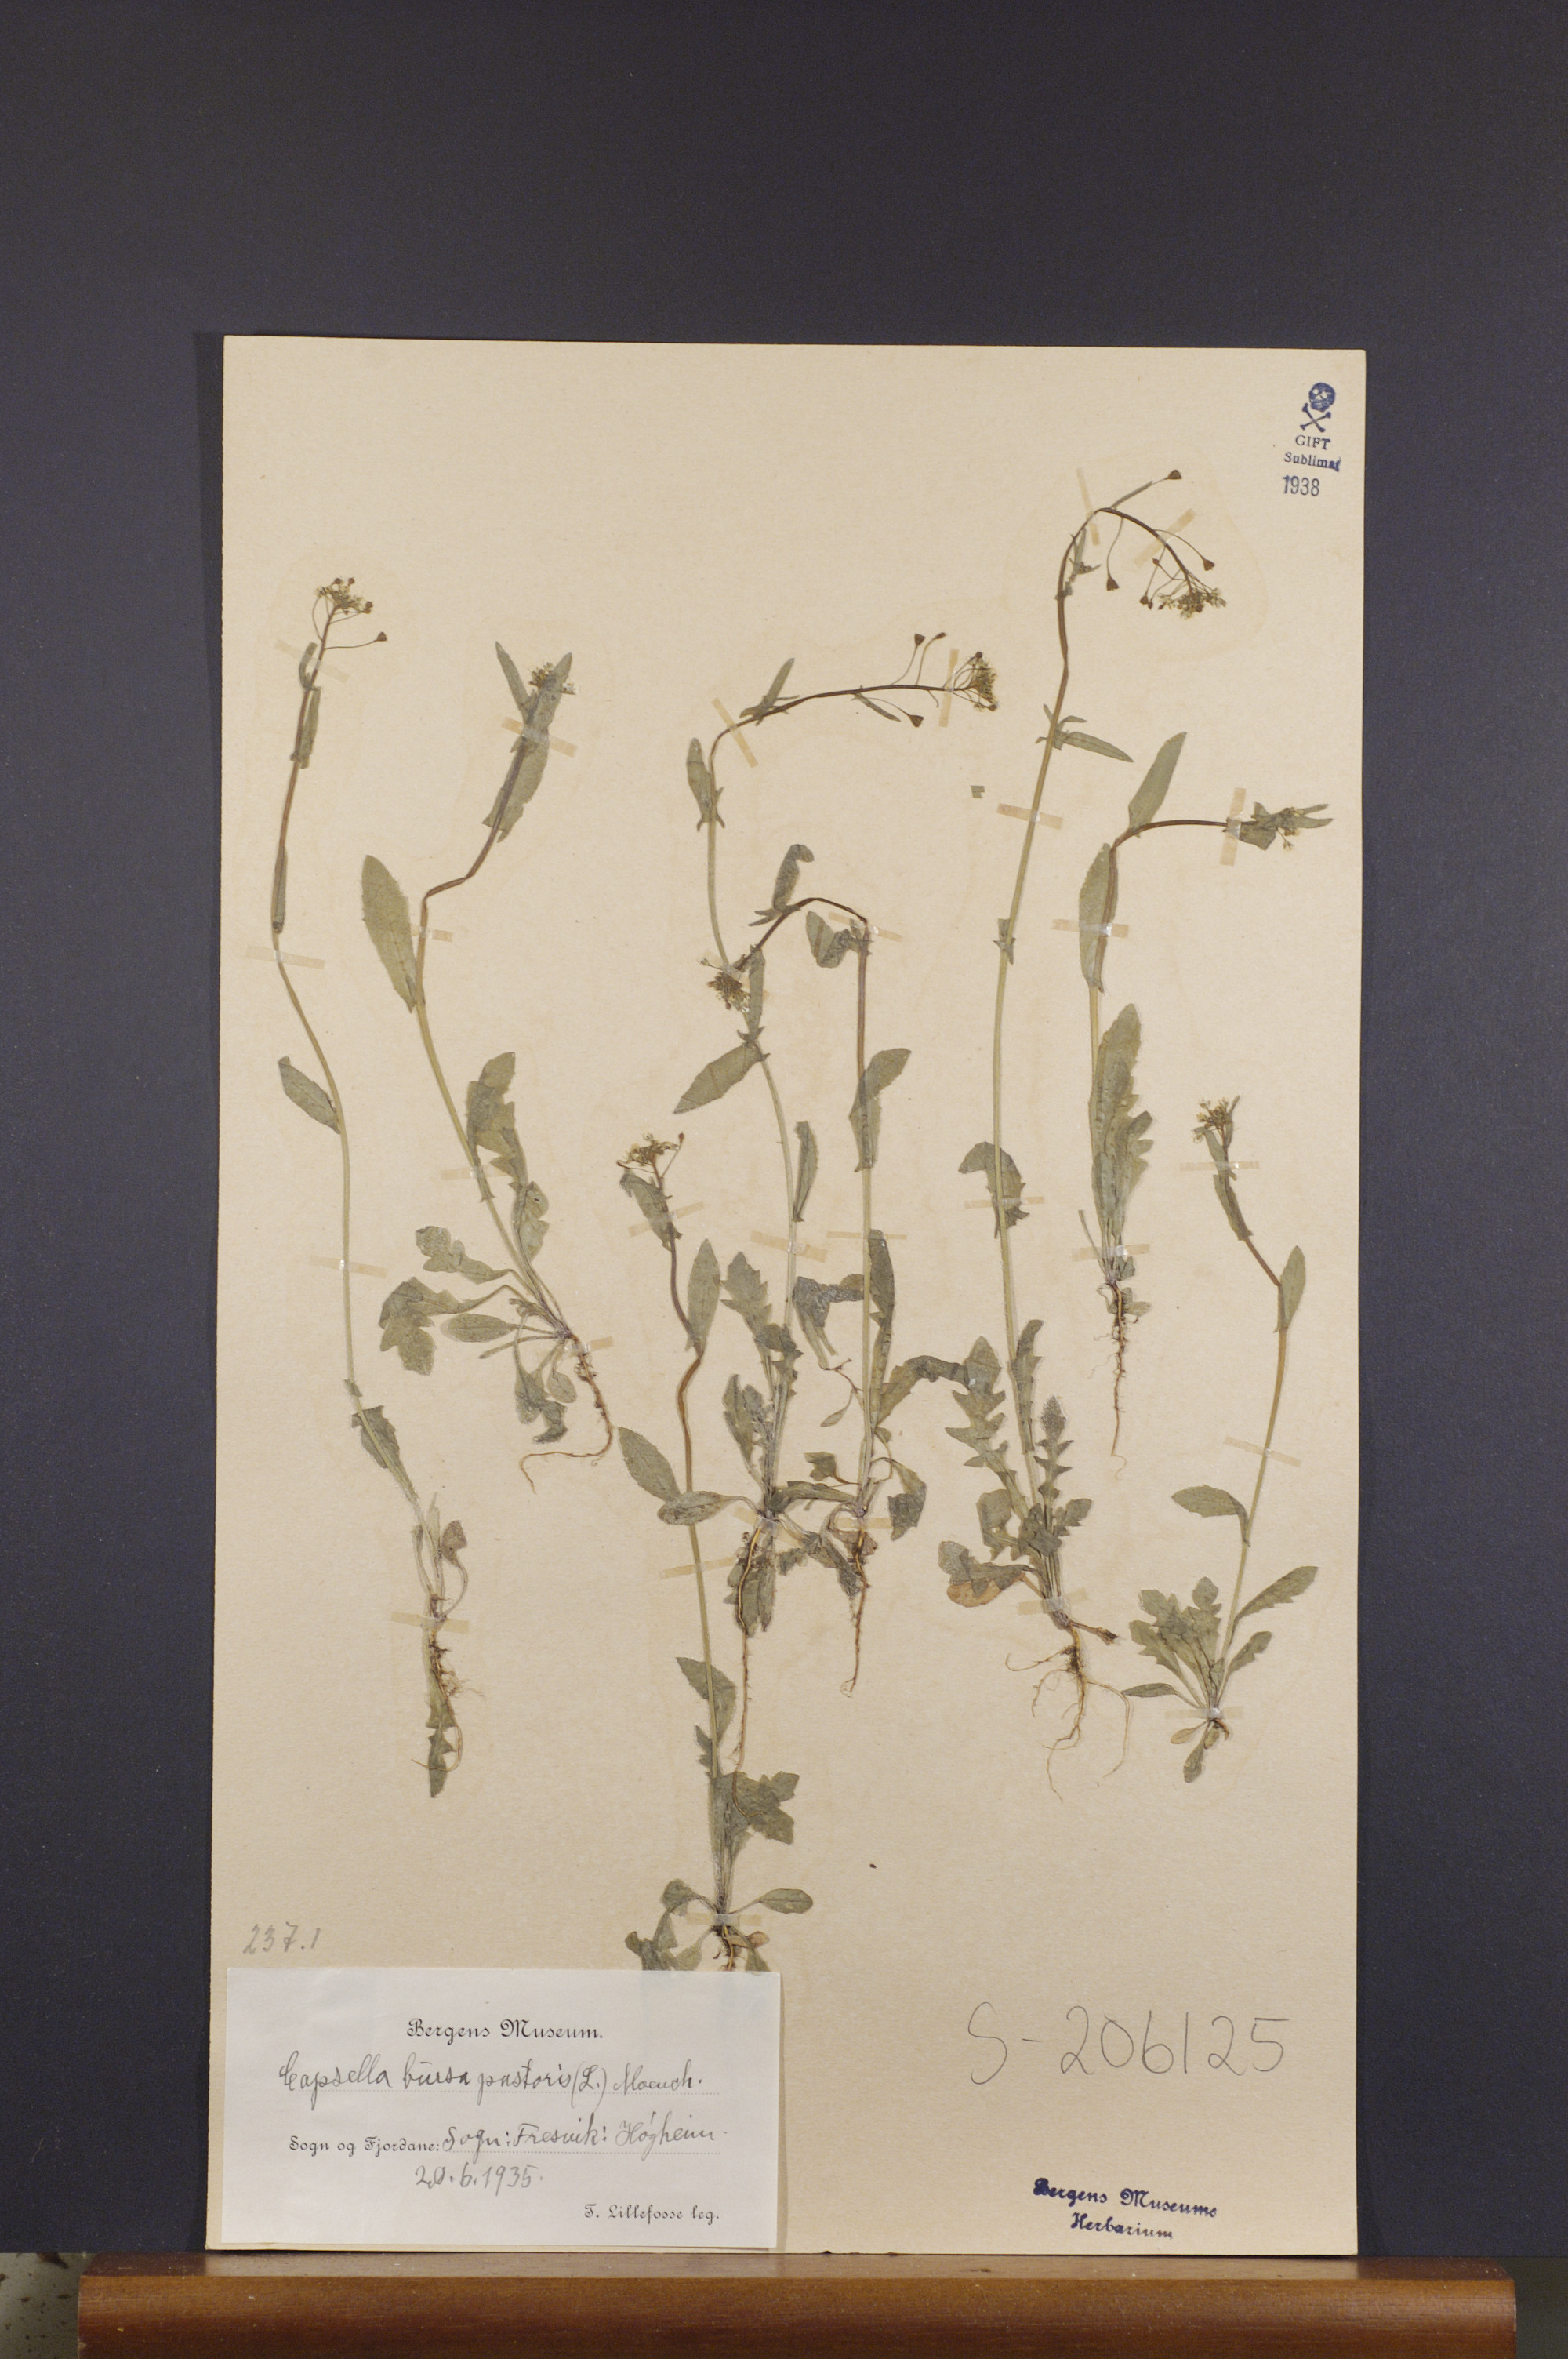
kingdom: Plantae
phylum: Tracheophyta
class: Magnoliopsida
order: Brassicales
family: Brassicaceae
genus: Capsella
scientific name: Capsella bursa-pastoris
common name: Shepherd's purse
